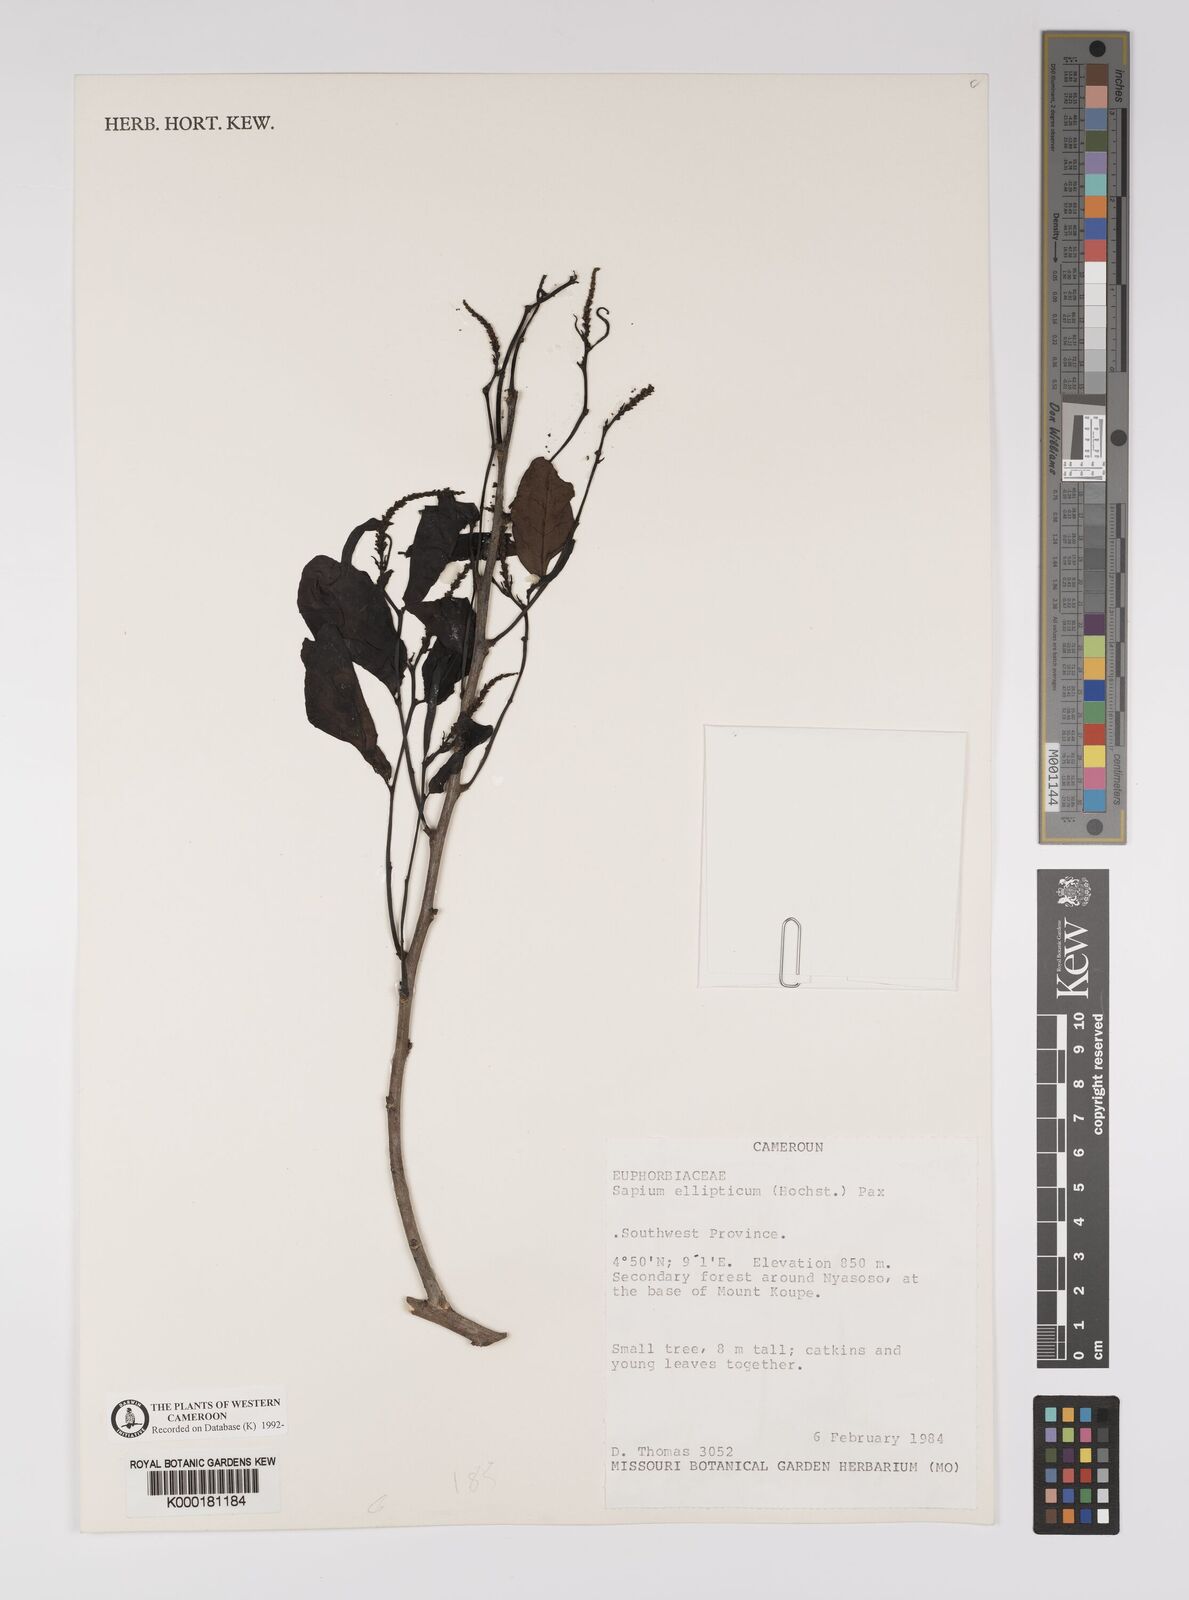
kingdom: Plantae
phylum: Tracheophyta
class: Magnoliopsida
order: Malpighiales
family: Euphorbiaceae
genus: Shirakiopsis
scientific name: Shirakiopsis elliptica
